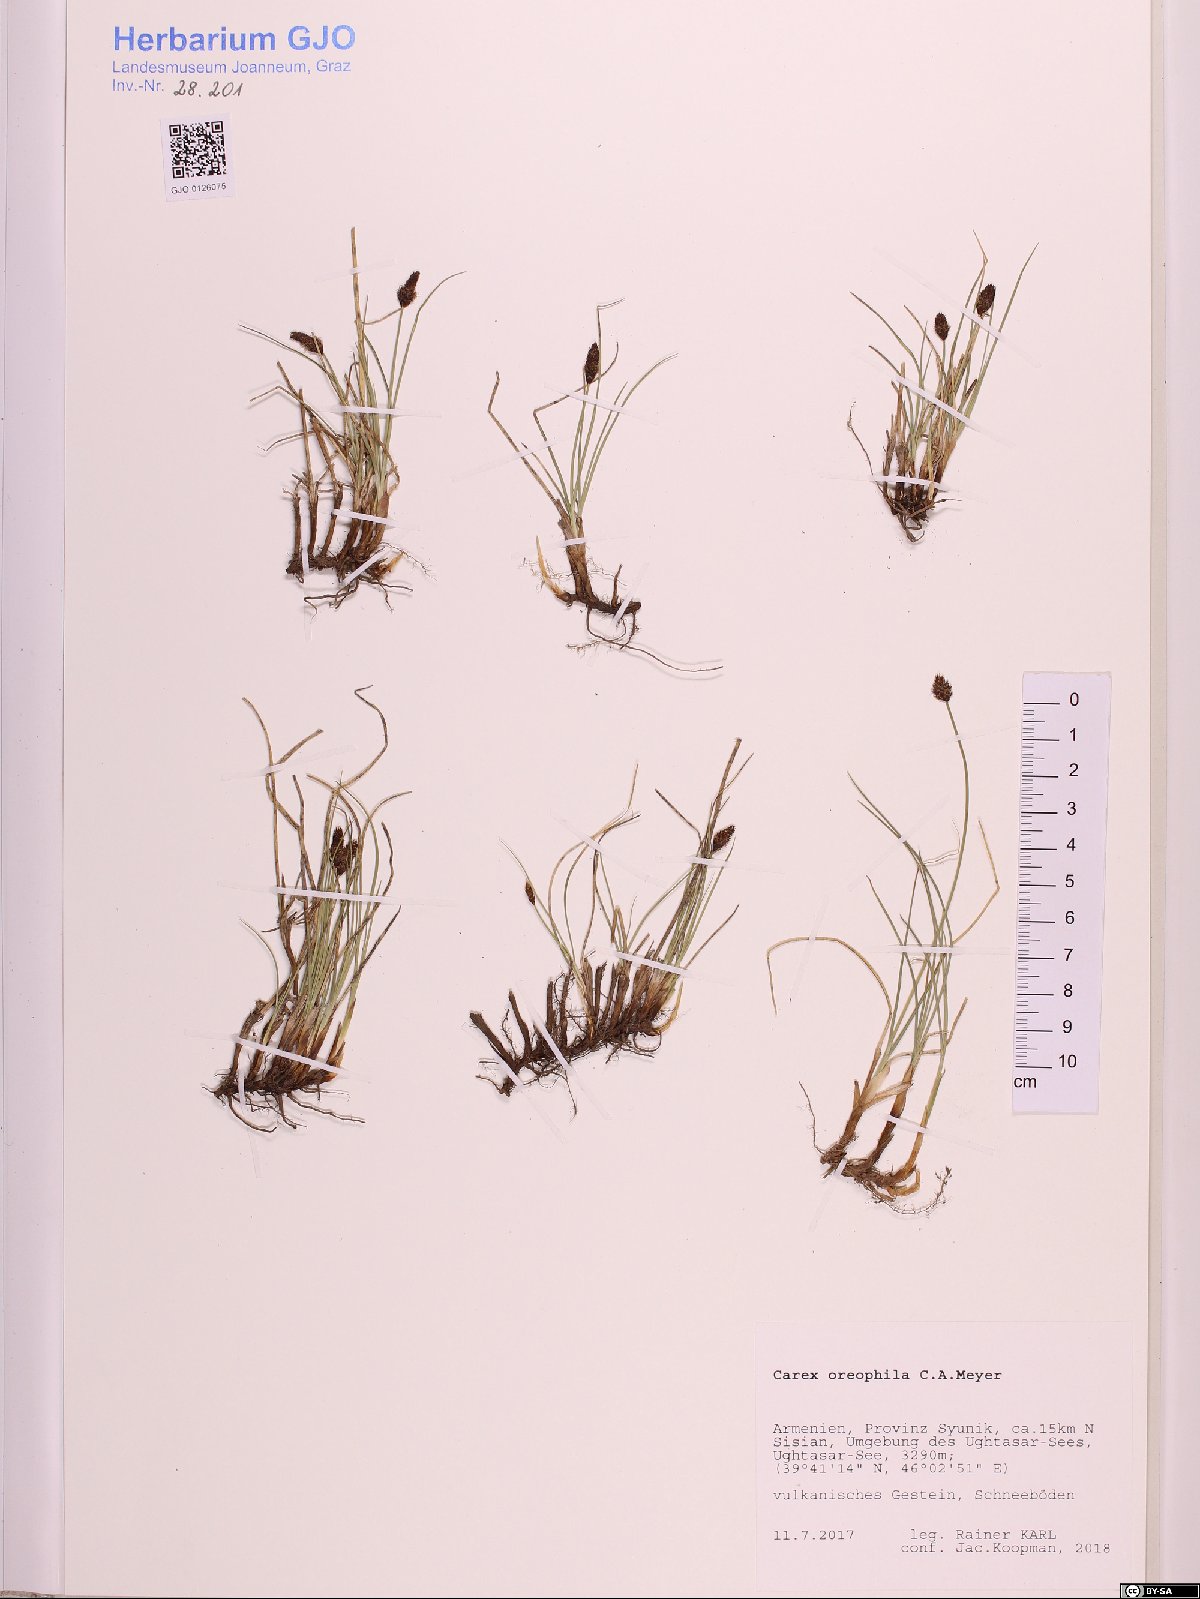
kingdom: Plantae
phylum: Tracheophyta
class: Liliopsida
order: Poales
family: Cyperaceae
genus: Carex
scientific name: Carex oreophila
